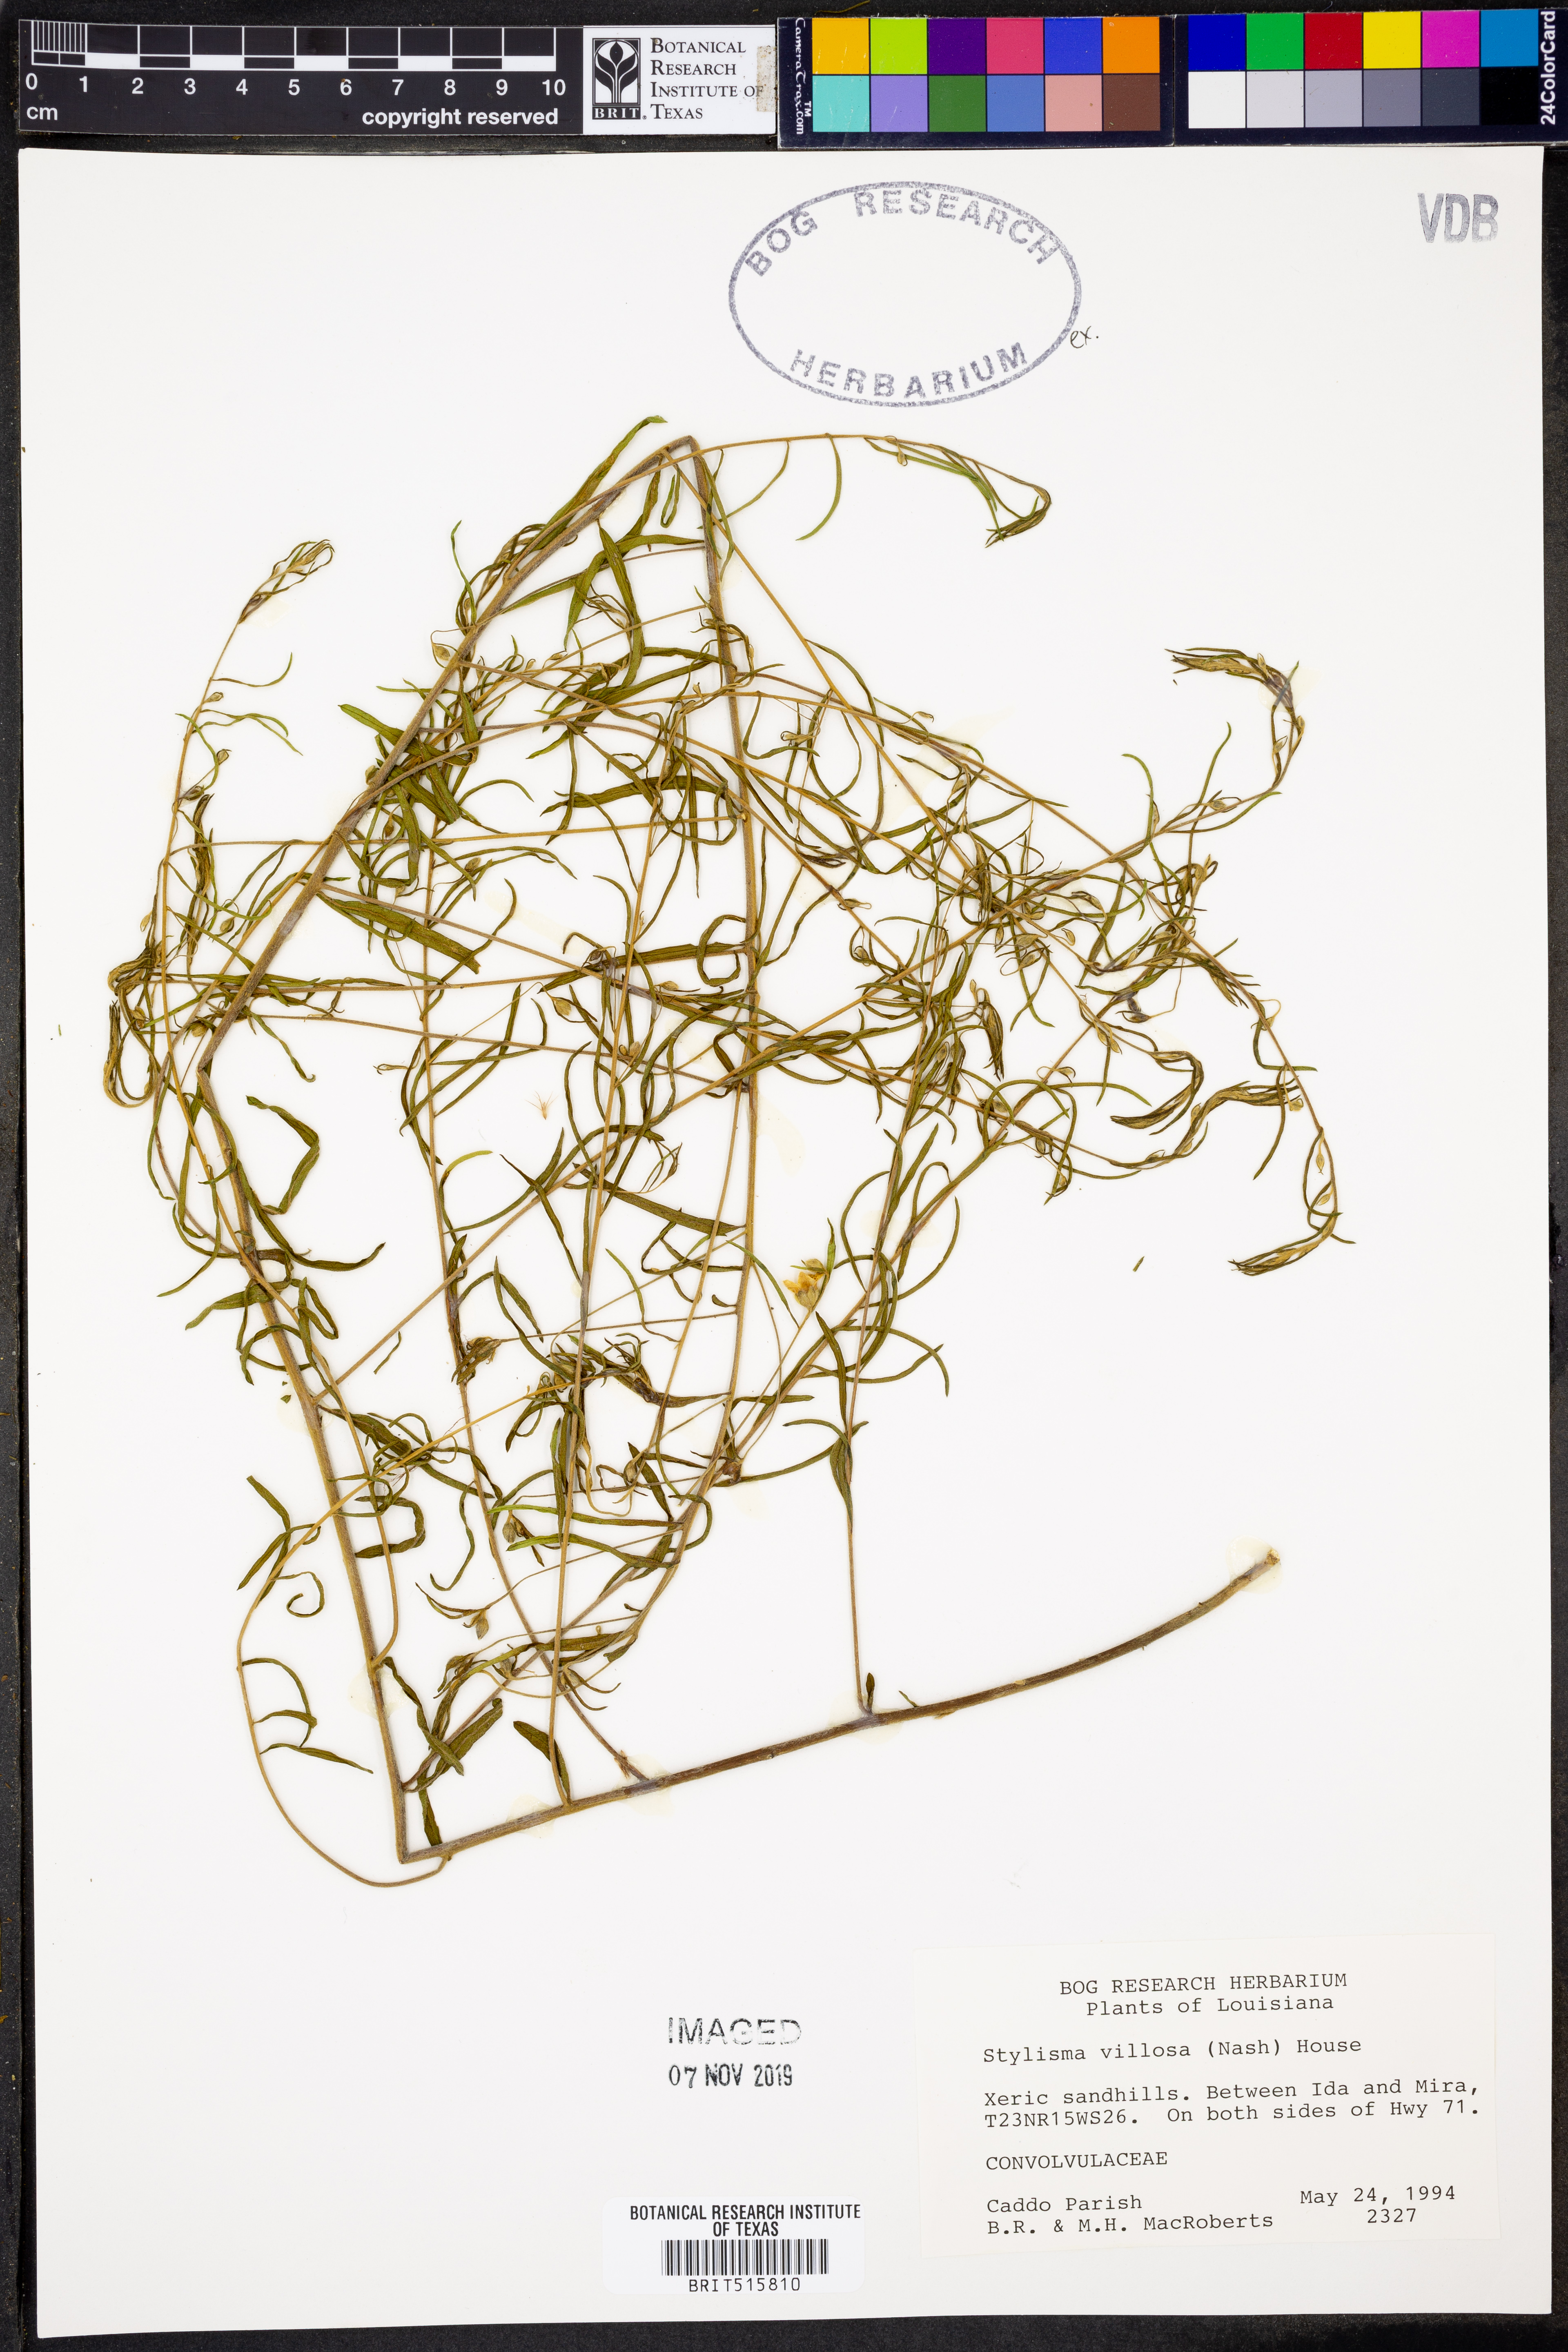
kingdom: Plantae
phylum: Tracheophyta
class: Magnoliopsida
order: Solanales
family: Convolvulaceae
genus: Stylisma
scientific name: Stylisma villosa
